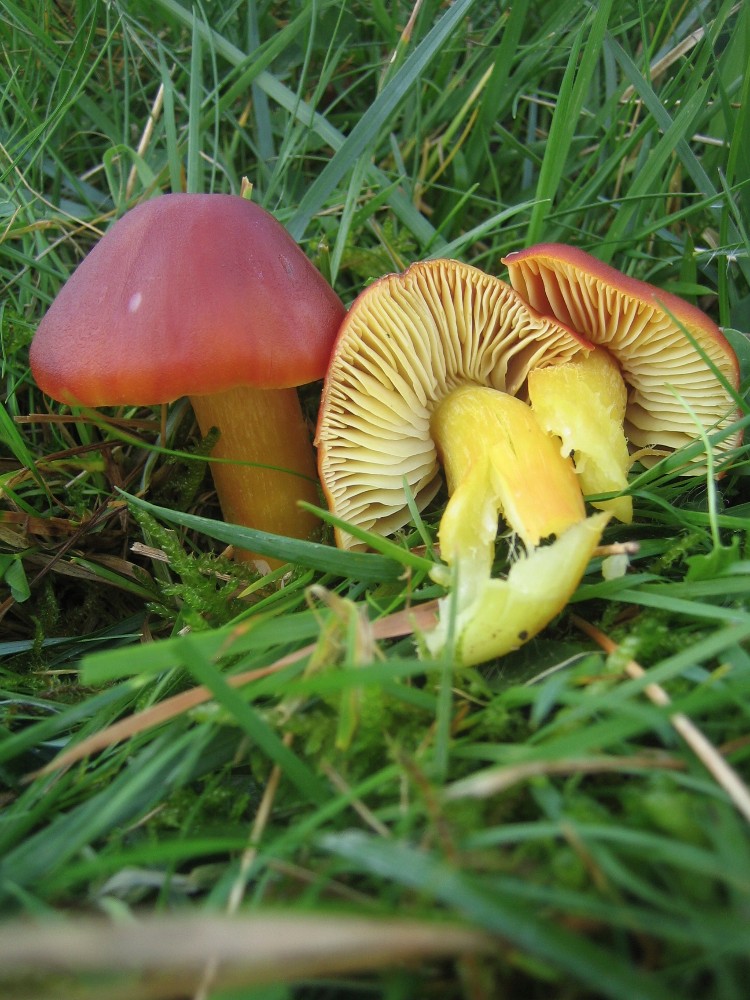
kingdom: Fungi
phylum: Basidiomycota
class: Agaricomycetes
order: Agaricales
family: Hygrophoraceae
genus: Hygrocybe
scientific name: Hygrocybe punicea
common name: skarlagen-vokshat
